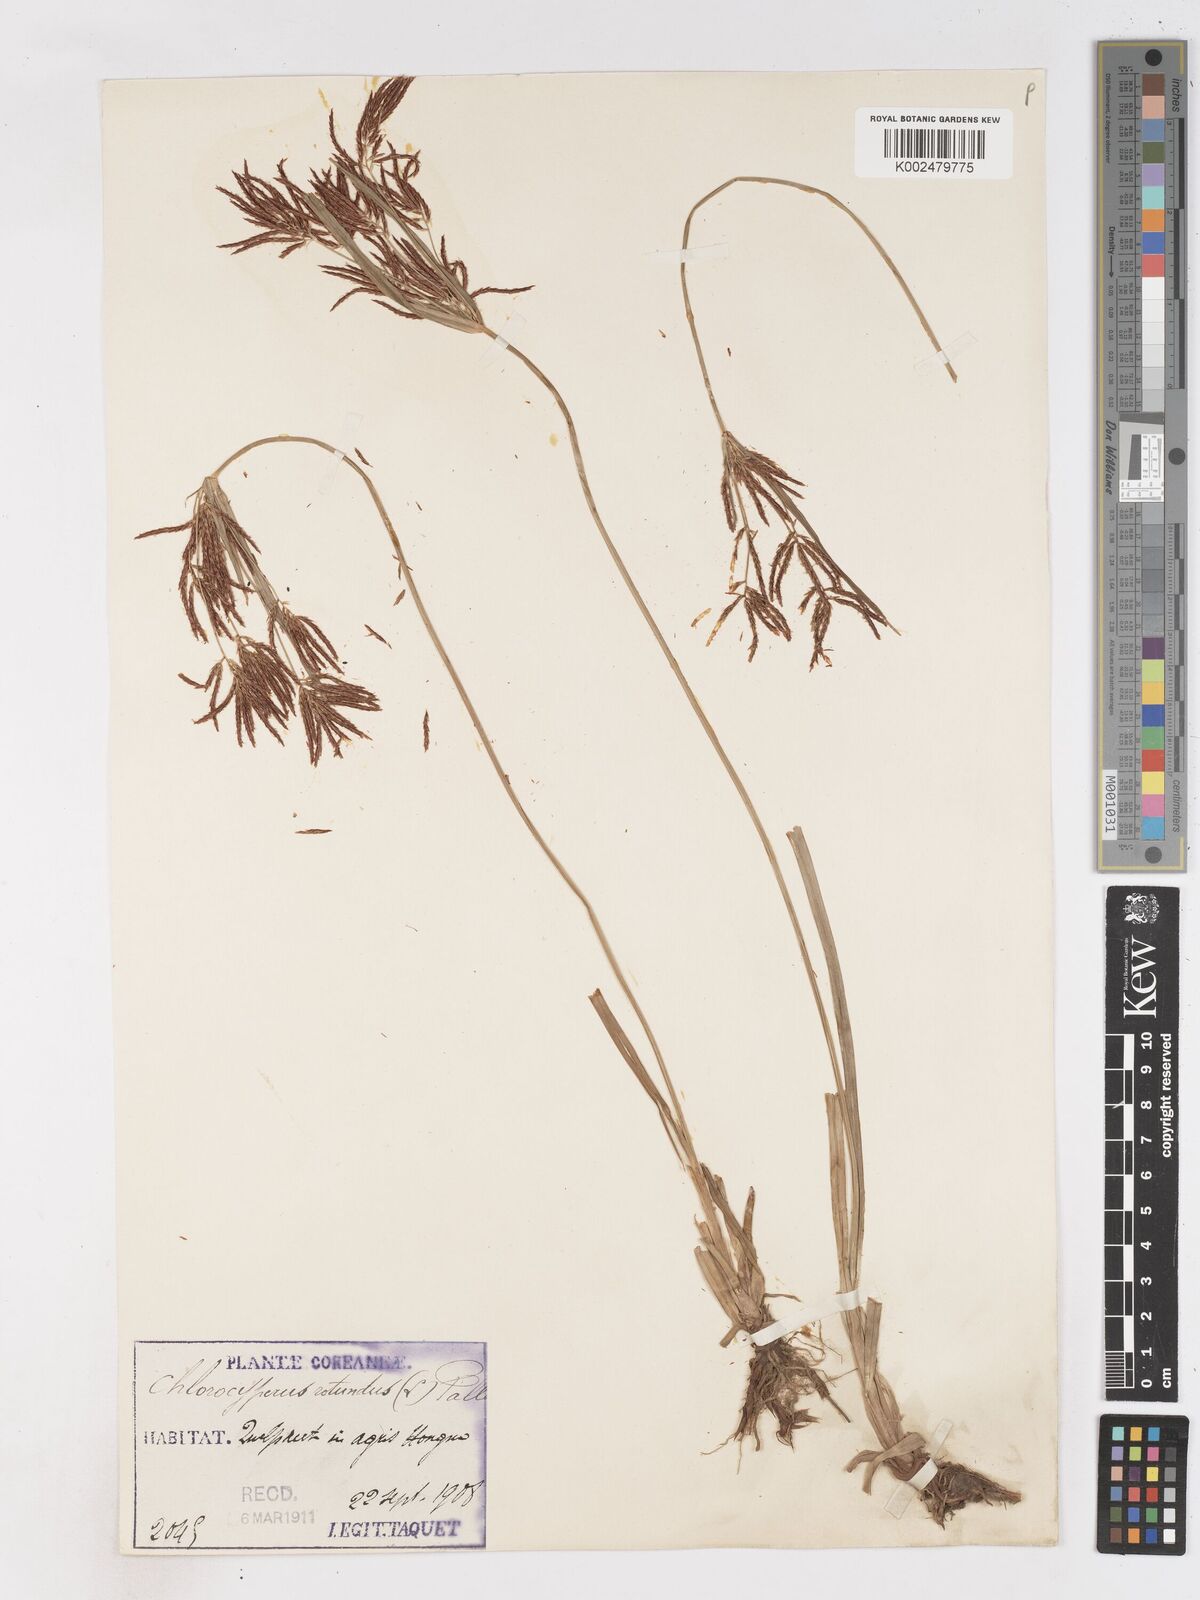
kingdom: Plantae
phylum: Tracheophyta
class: Liliopsida
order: Poales
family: Cyperaceae
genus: Cyperus
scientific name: Cyperus rotundus
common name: Nutgrass
